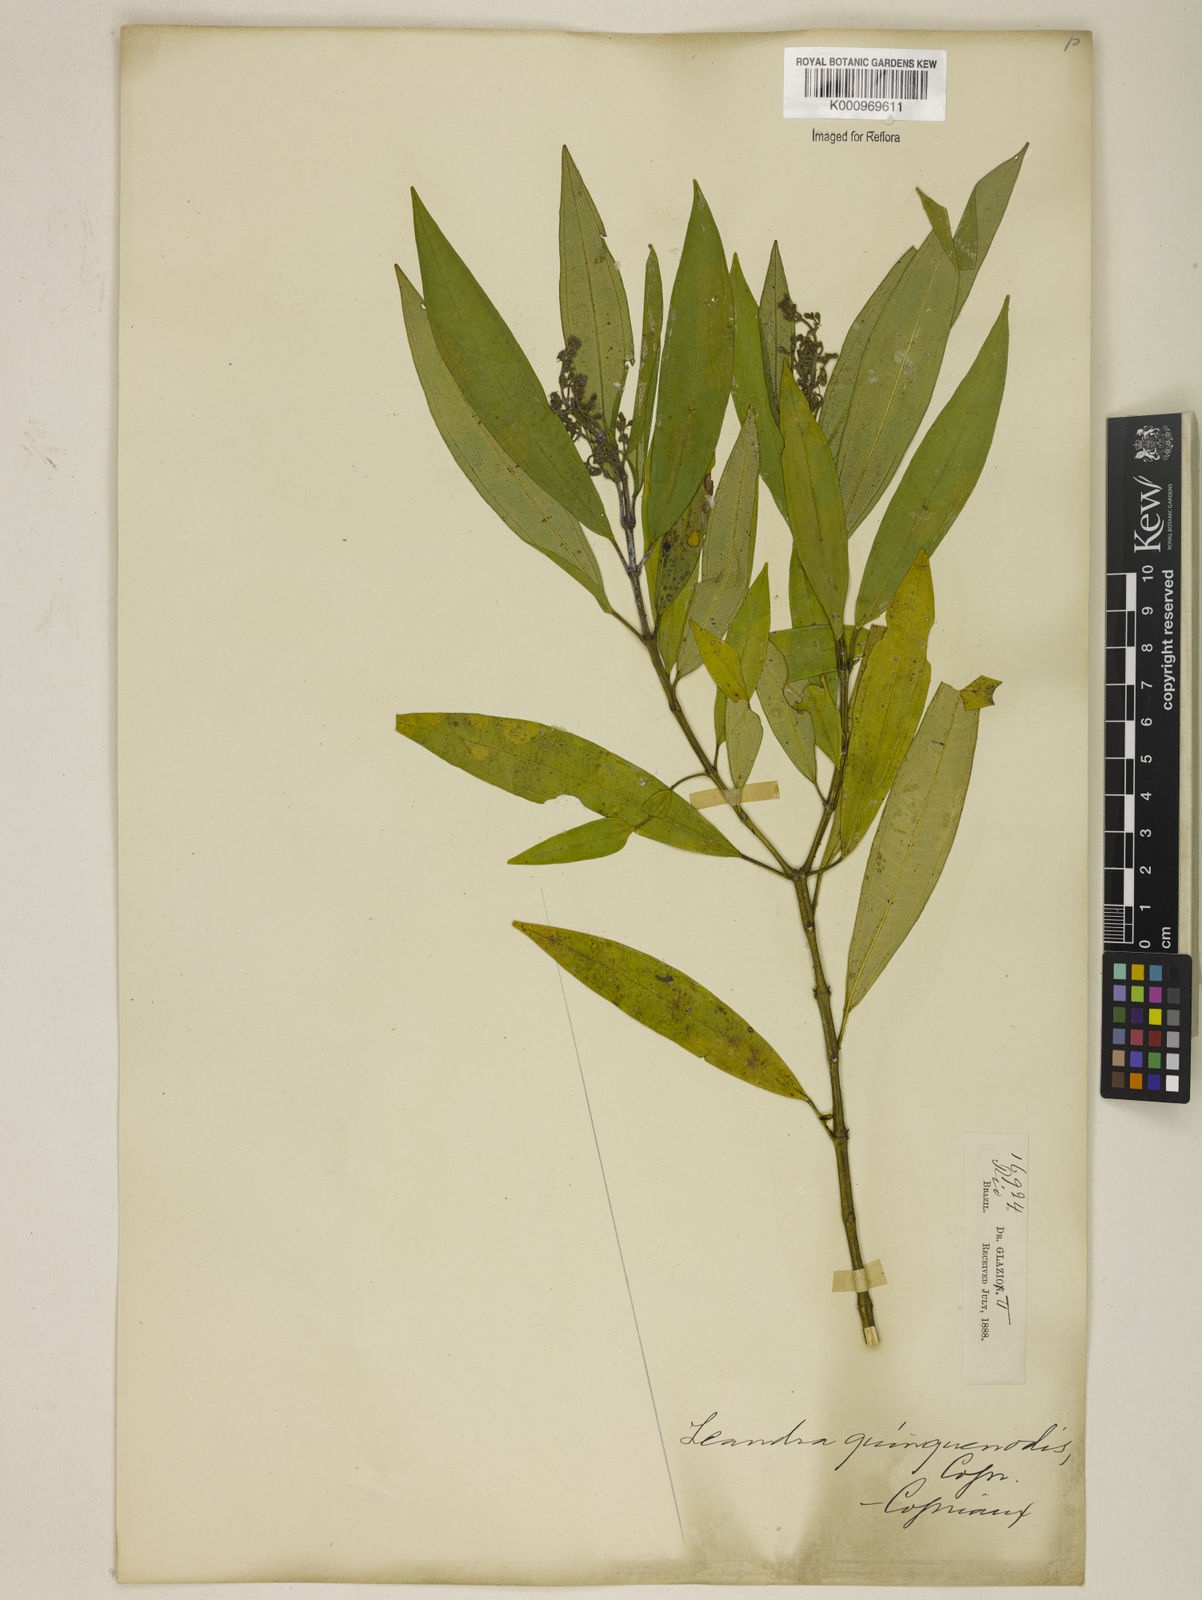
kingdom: Plantae
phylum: Tracheophyta
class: Magnoliopsida
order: Myrtales
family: Melastomataceae
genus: Miconia
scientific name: Miconia quinquenodis
